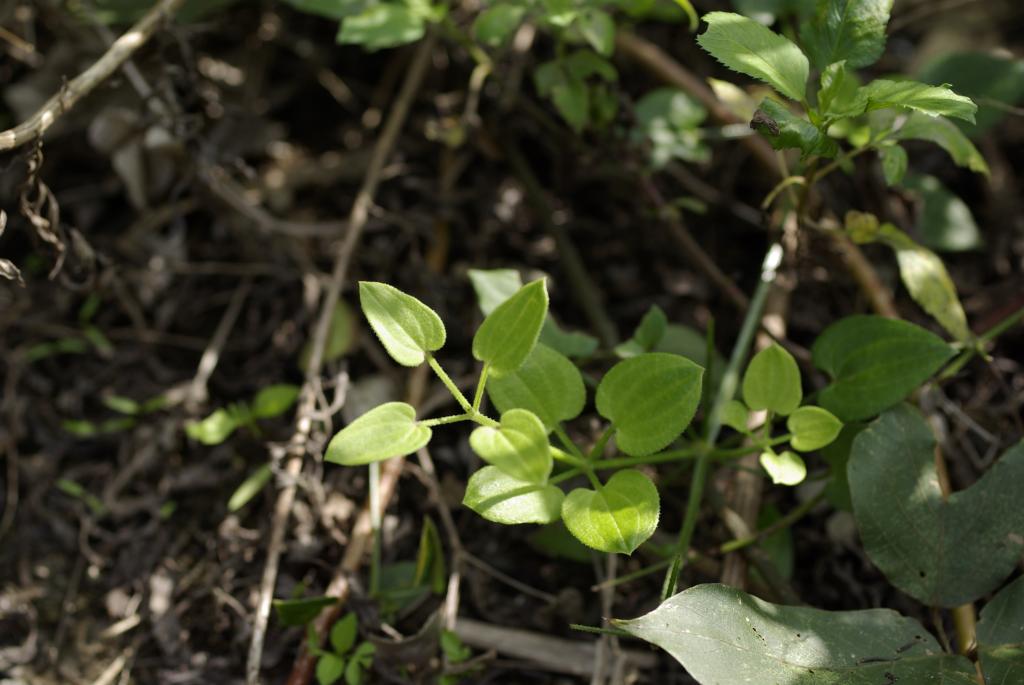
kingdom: Plantae
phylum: Tracheophyta
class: Magnoliopsida
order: Gentianales
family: Rubiaceae
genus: Rubia
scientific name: Rubia argyi
